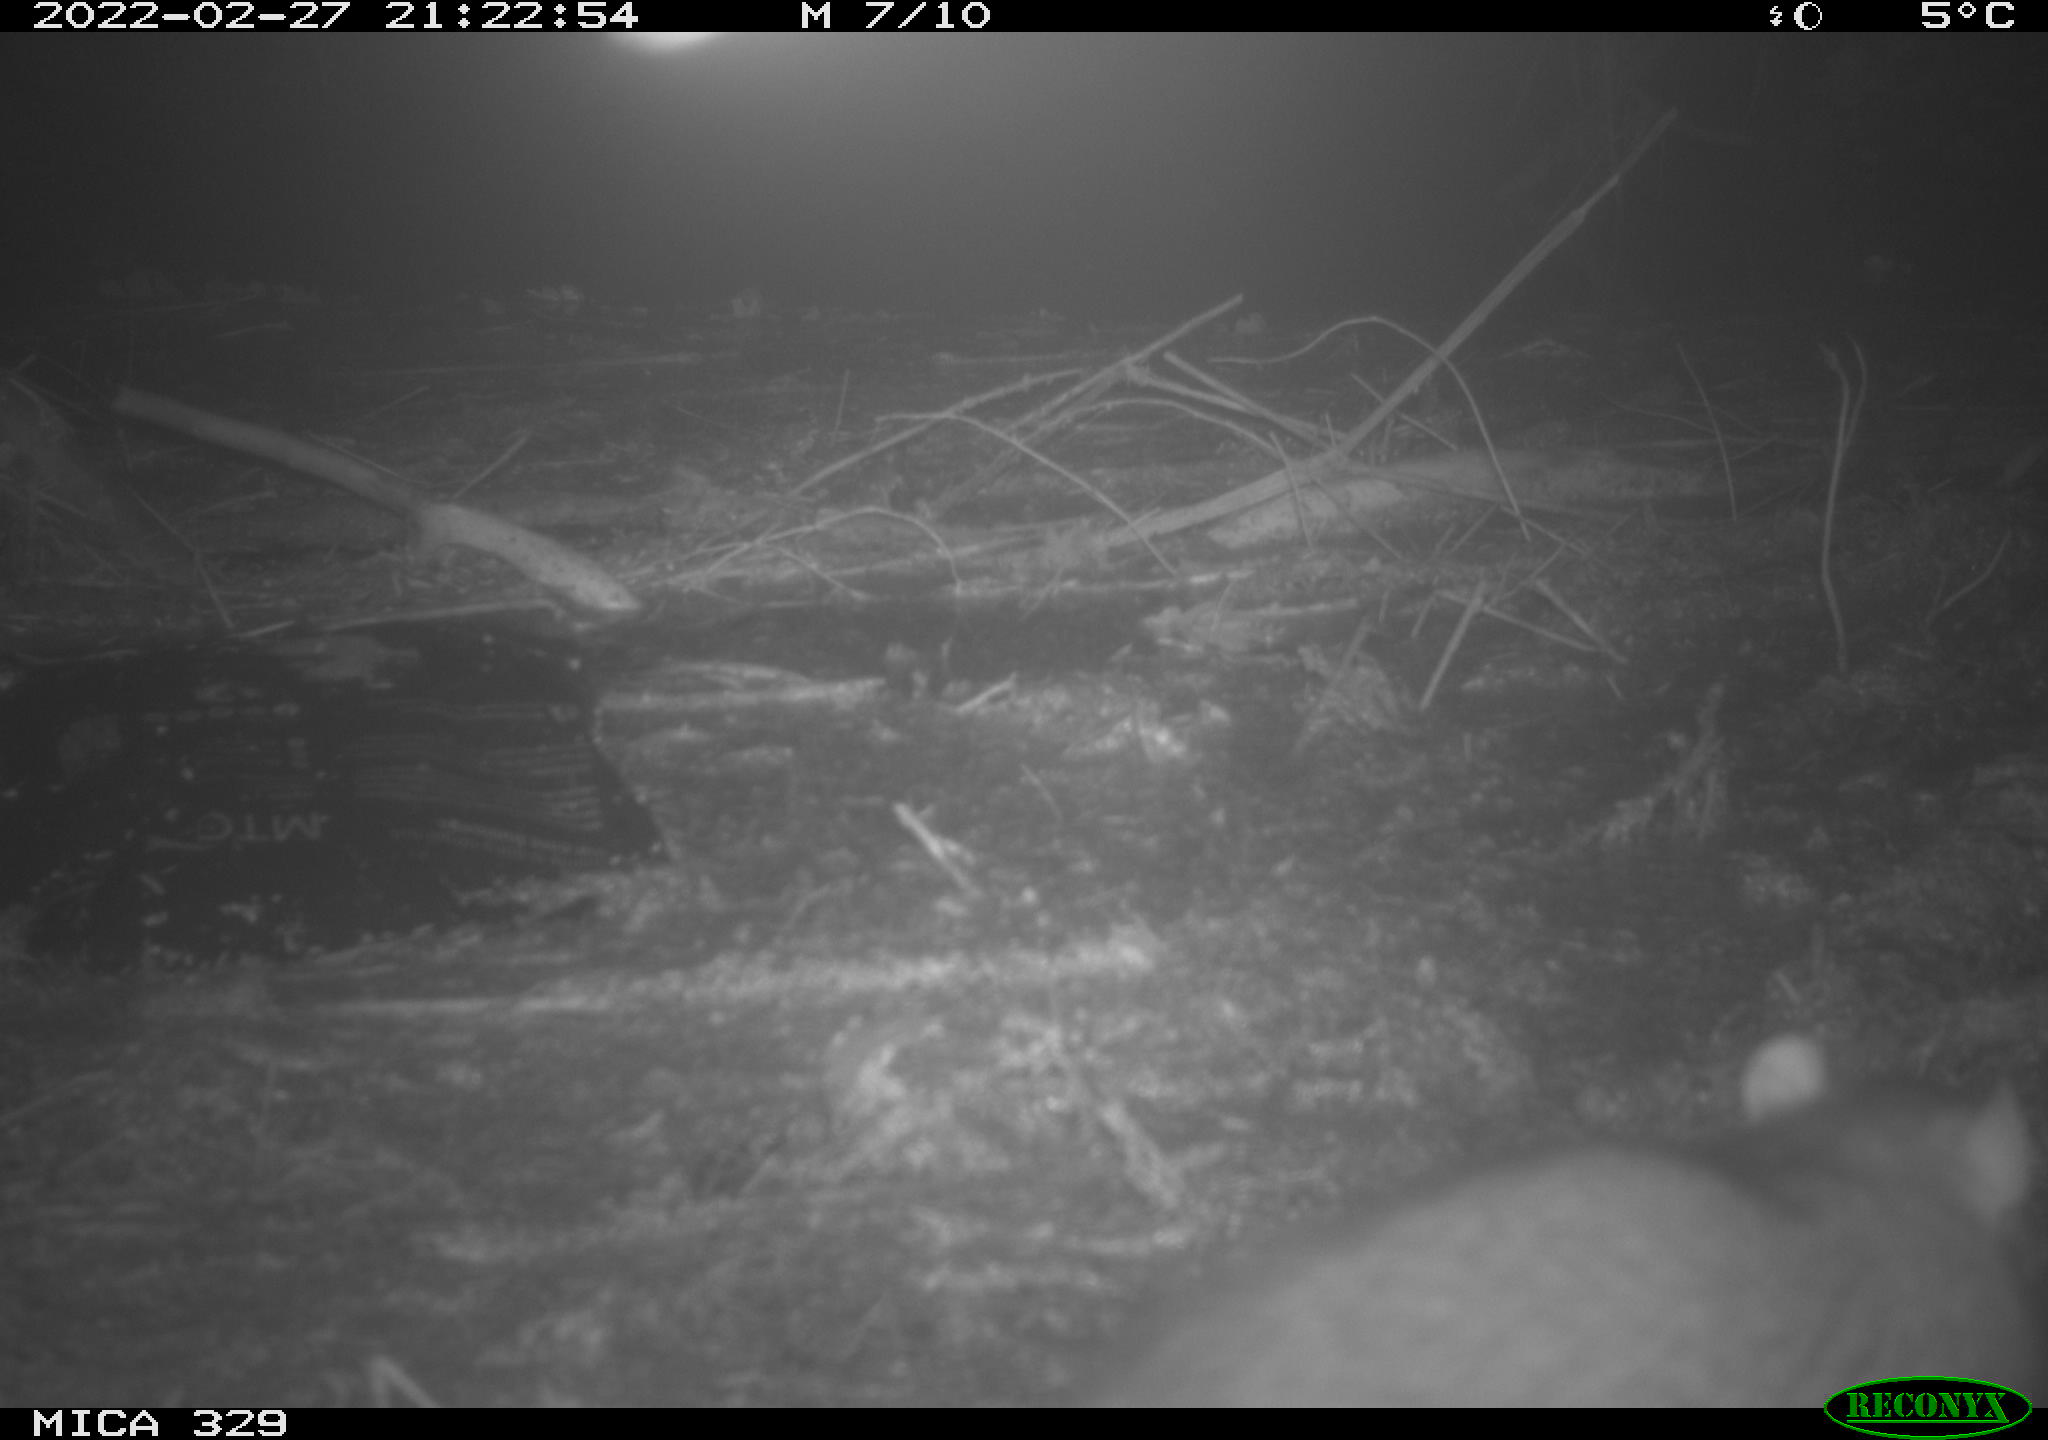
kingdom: Animalia
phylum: Chordata
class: Mammalia
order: Rodentia
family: Muridae
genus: Rattus
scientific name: Rattus norvegicus
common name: Brown rat
